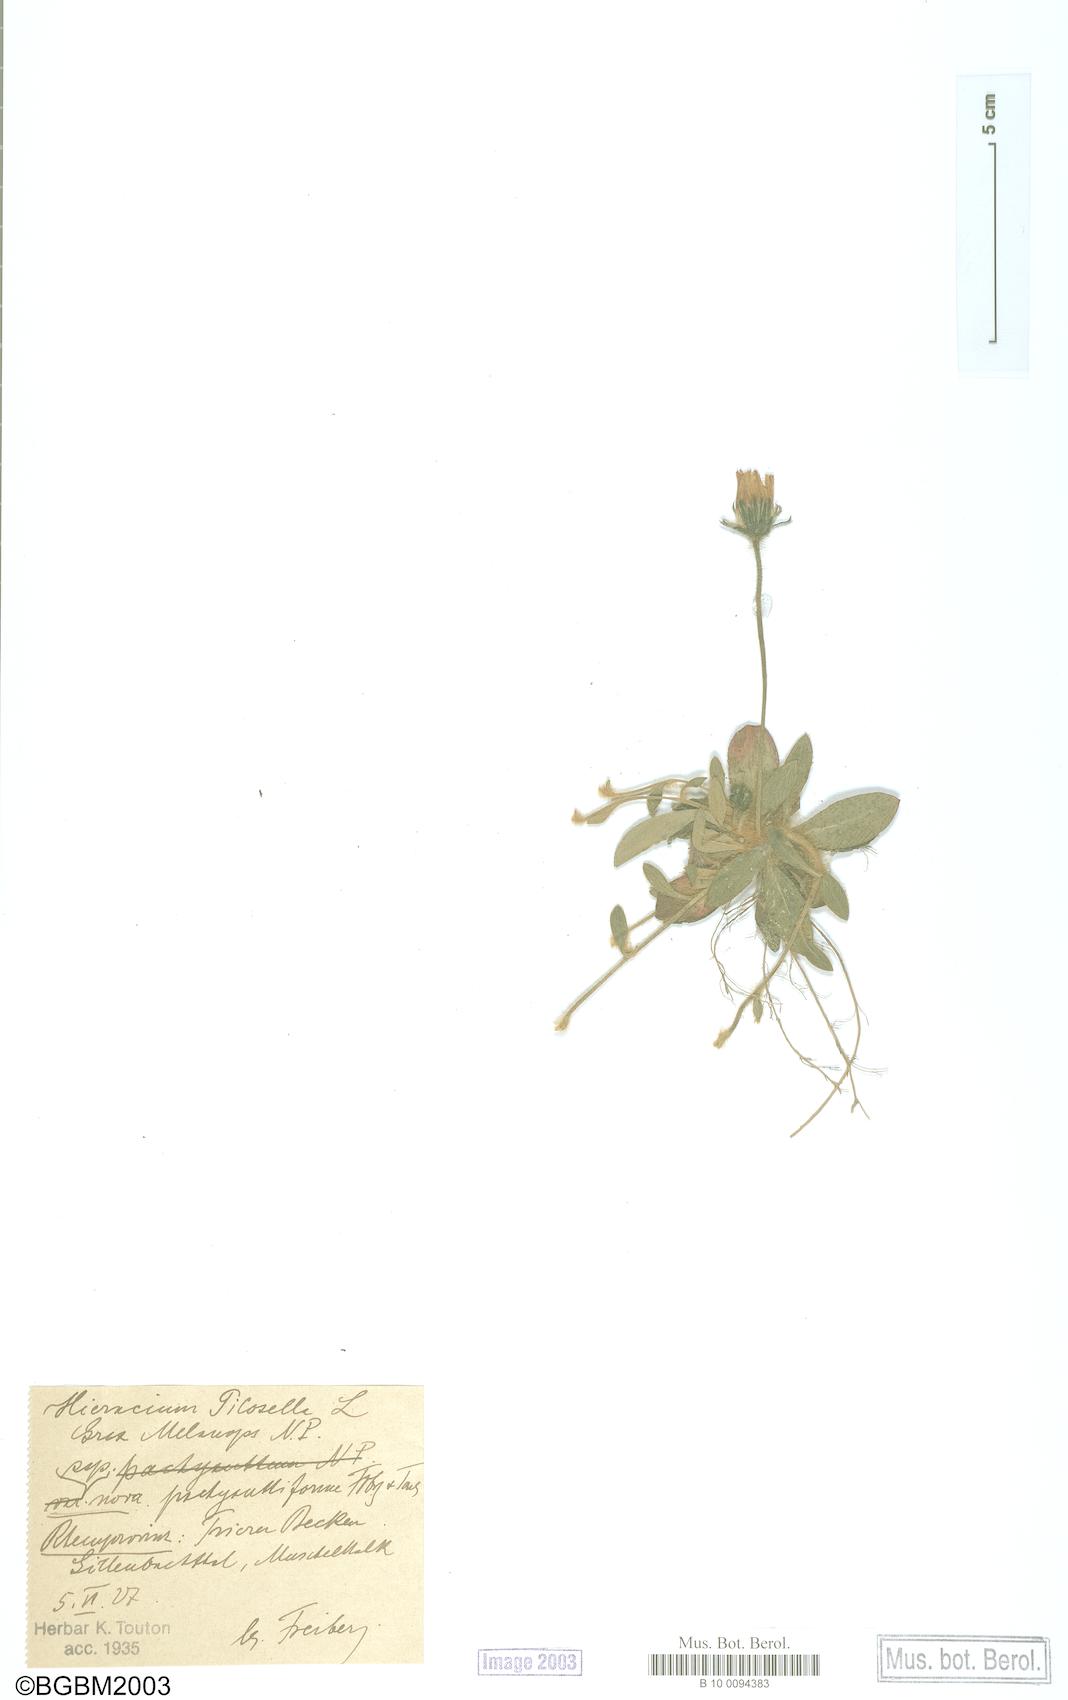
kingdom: Plantae
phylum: Tracheophyta
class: Magnoliopsida
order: Asterales
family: Asteraceae
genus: Pilosella
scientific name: Pilosella officinarum
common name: Mouse-ear hawkweed
